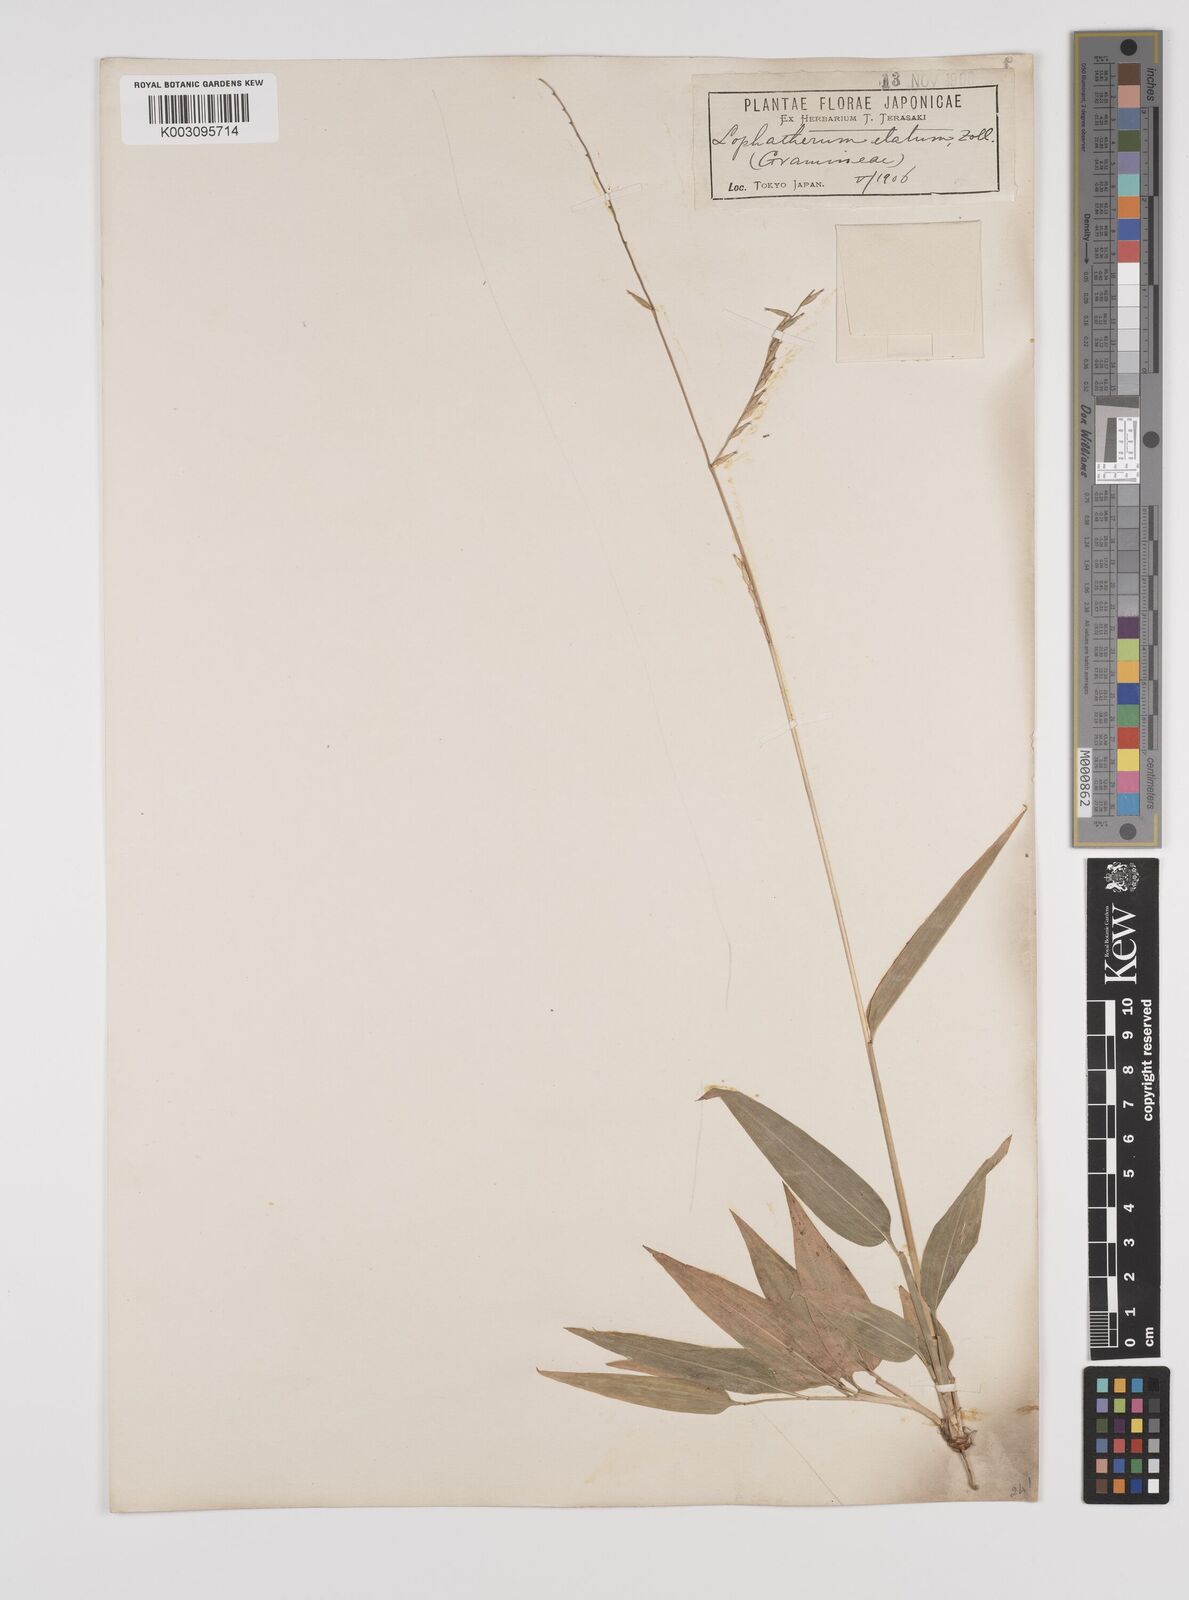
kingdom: Plantae
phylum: Tracheophyta
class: Liliopsida
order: Poales
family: Poaceae
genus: Lophatherum
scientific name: Lophatherum gracile
